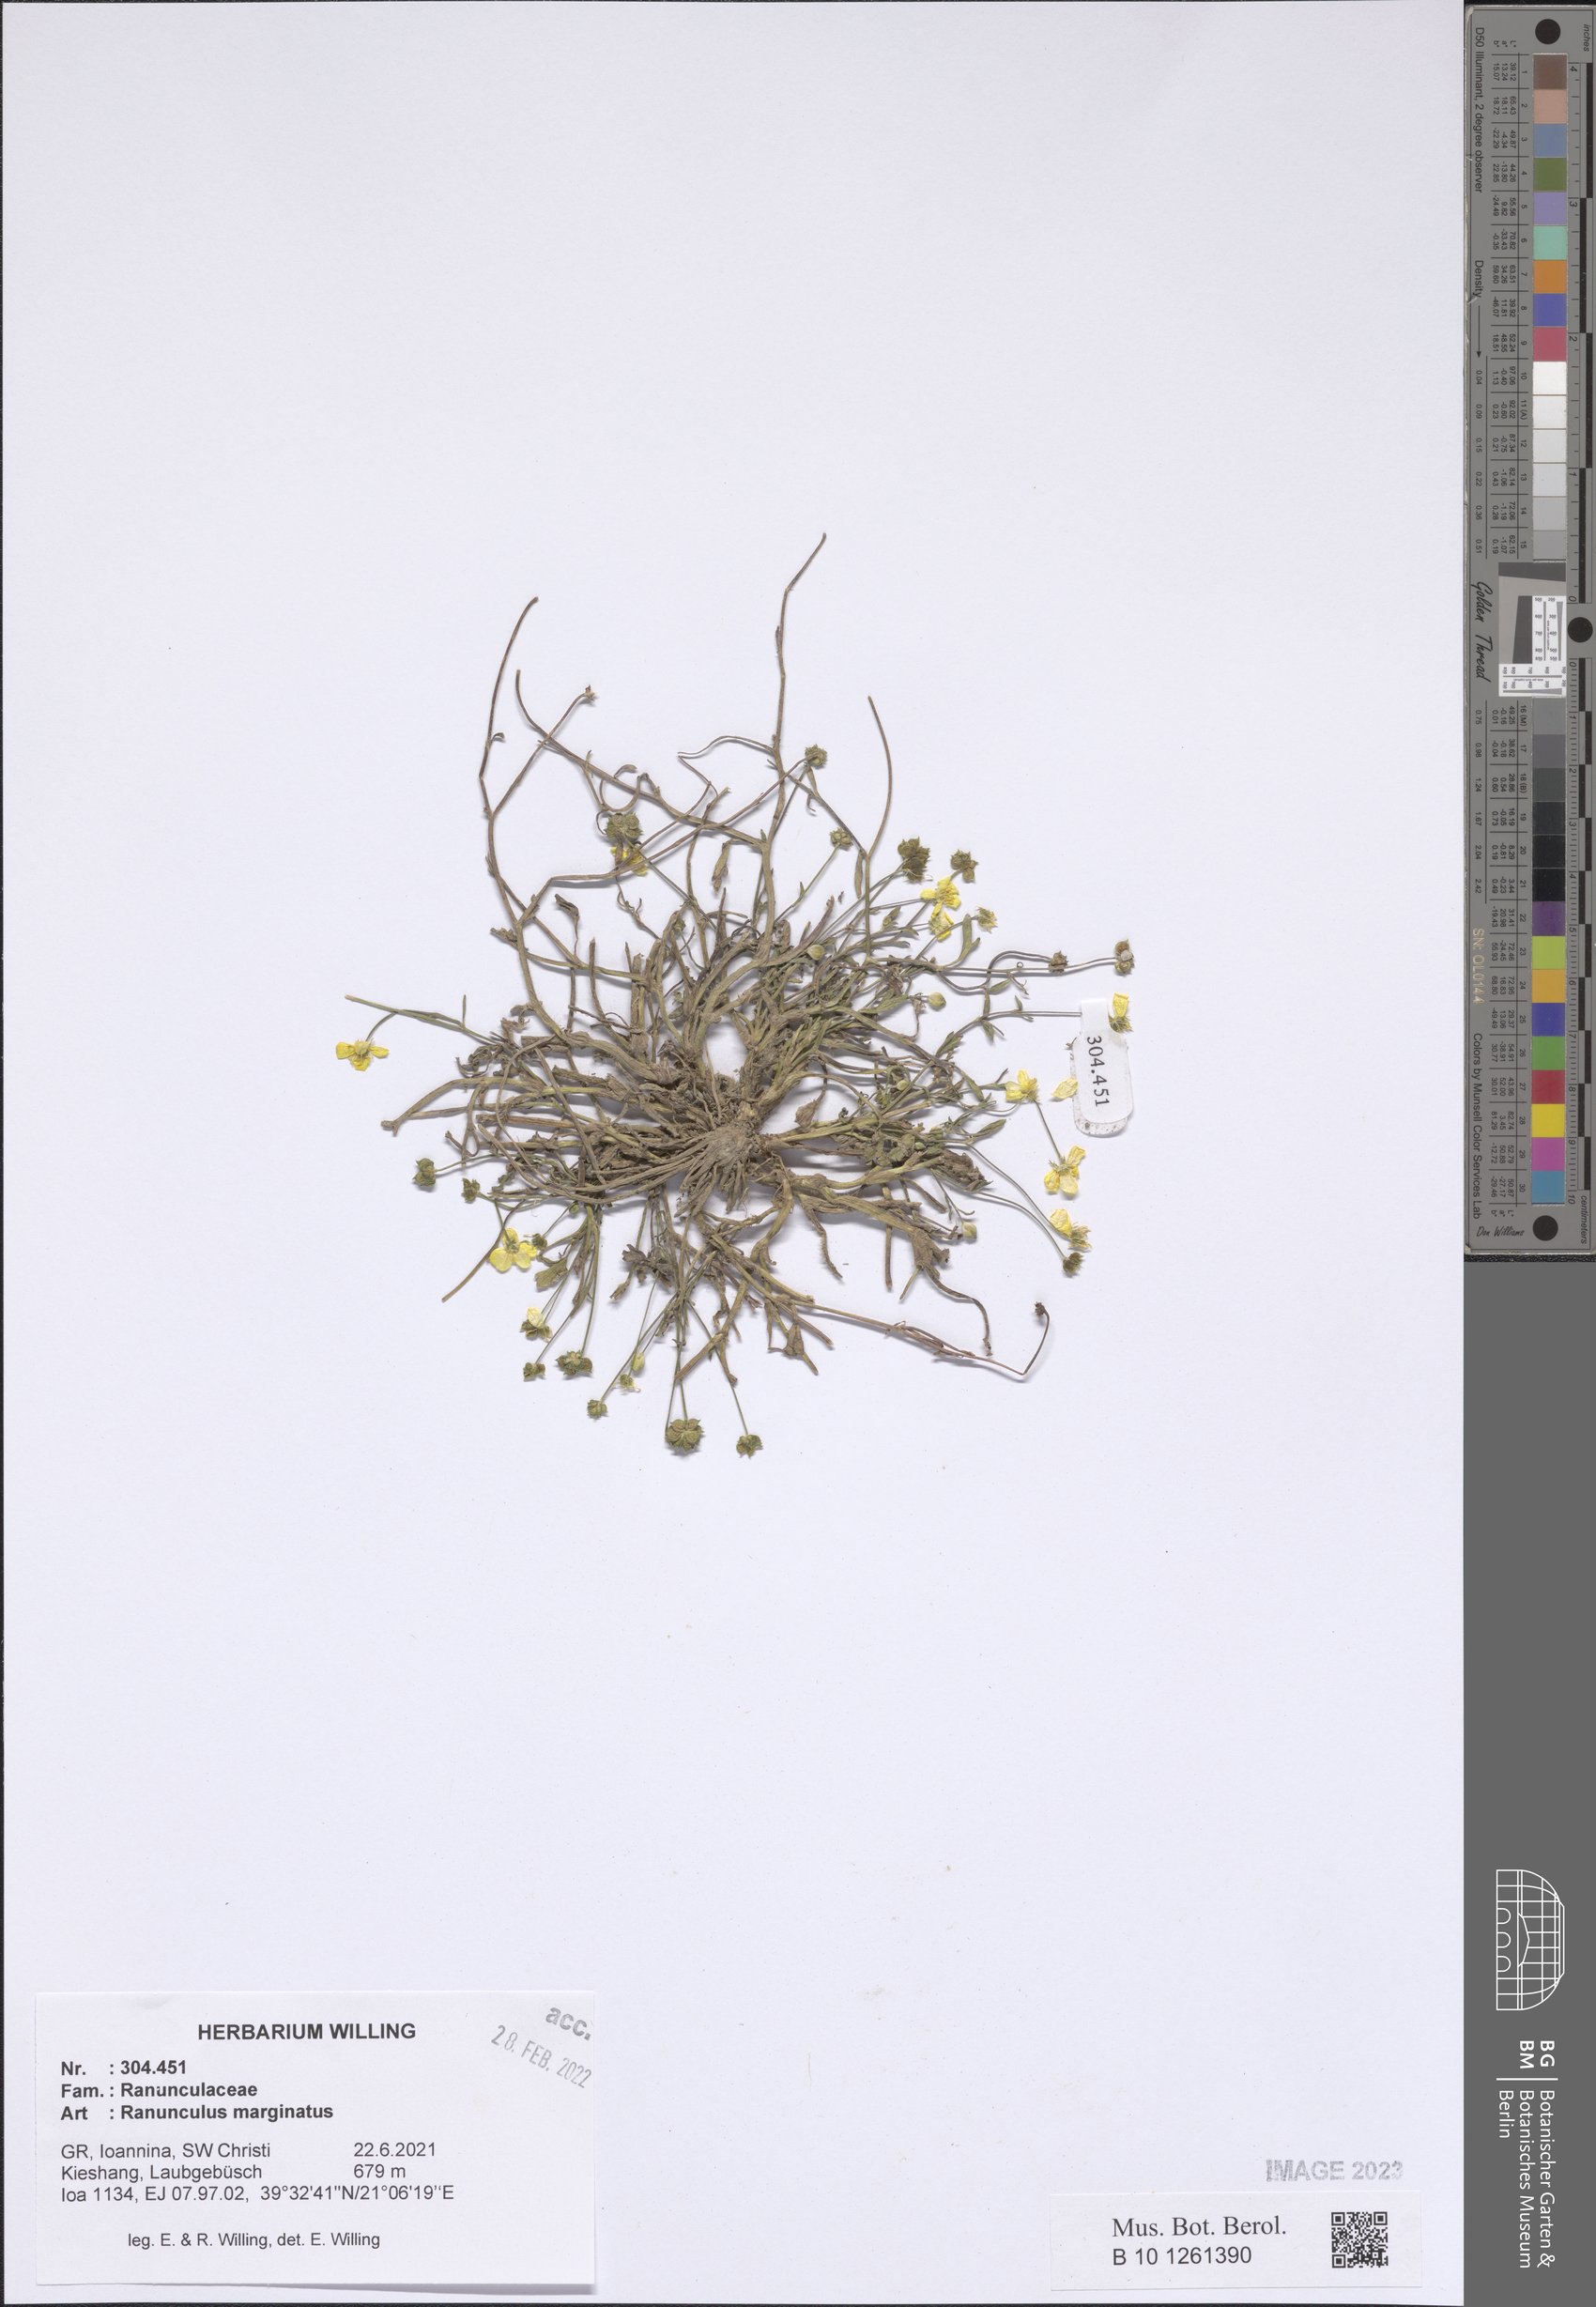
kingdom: Plantae
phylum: Tracheophyta
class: Magnoliopsida
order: Ranunculales
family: Ranunculaceae
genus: Ranunculus
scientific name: Ranunculus marginatus
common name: St. martin's buttercup
